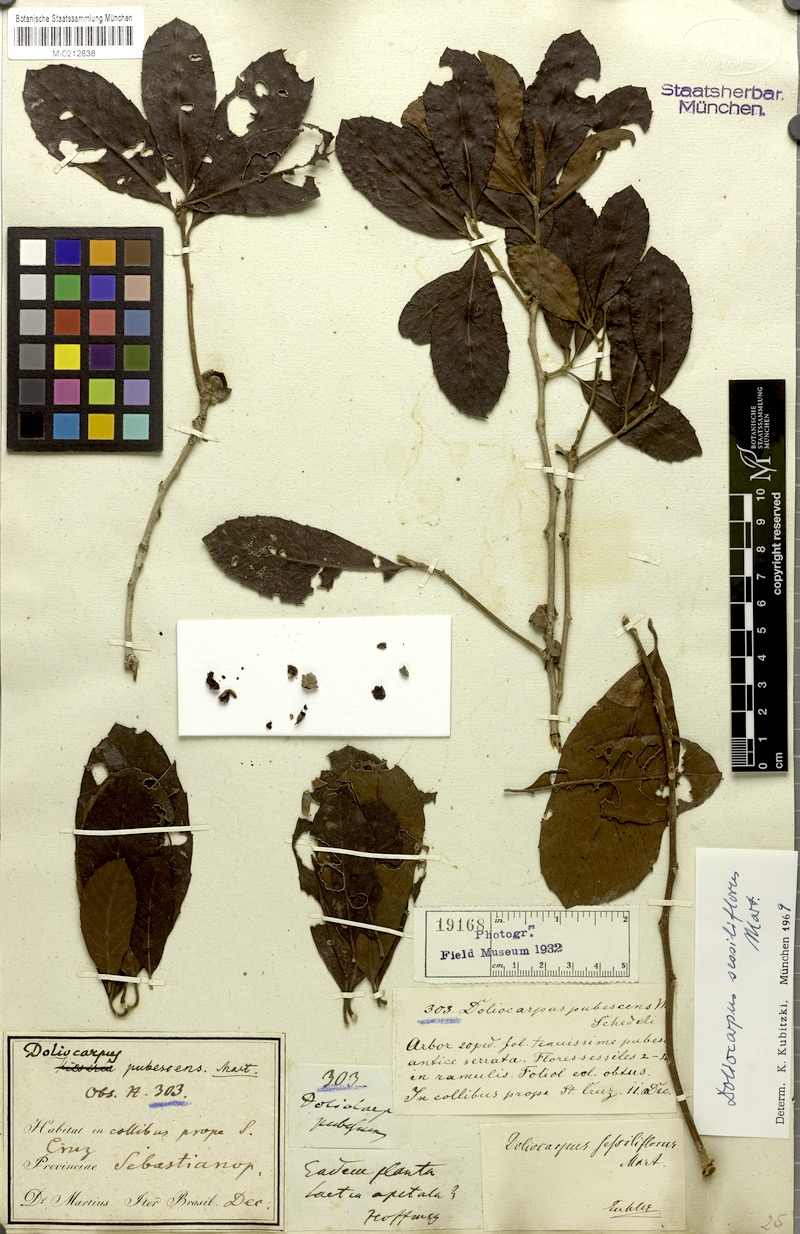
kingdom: Plantae
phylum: Tracheophyta
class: Magnoliopsida
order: Dilleniales
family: Dilleniaceae
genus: Doliocarpus
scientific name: Doliocarpus sessiliflorus
